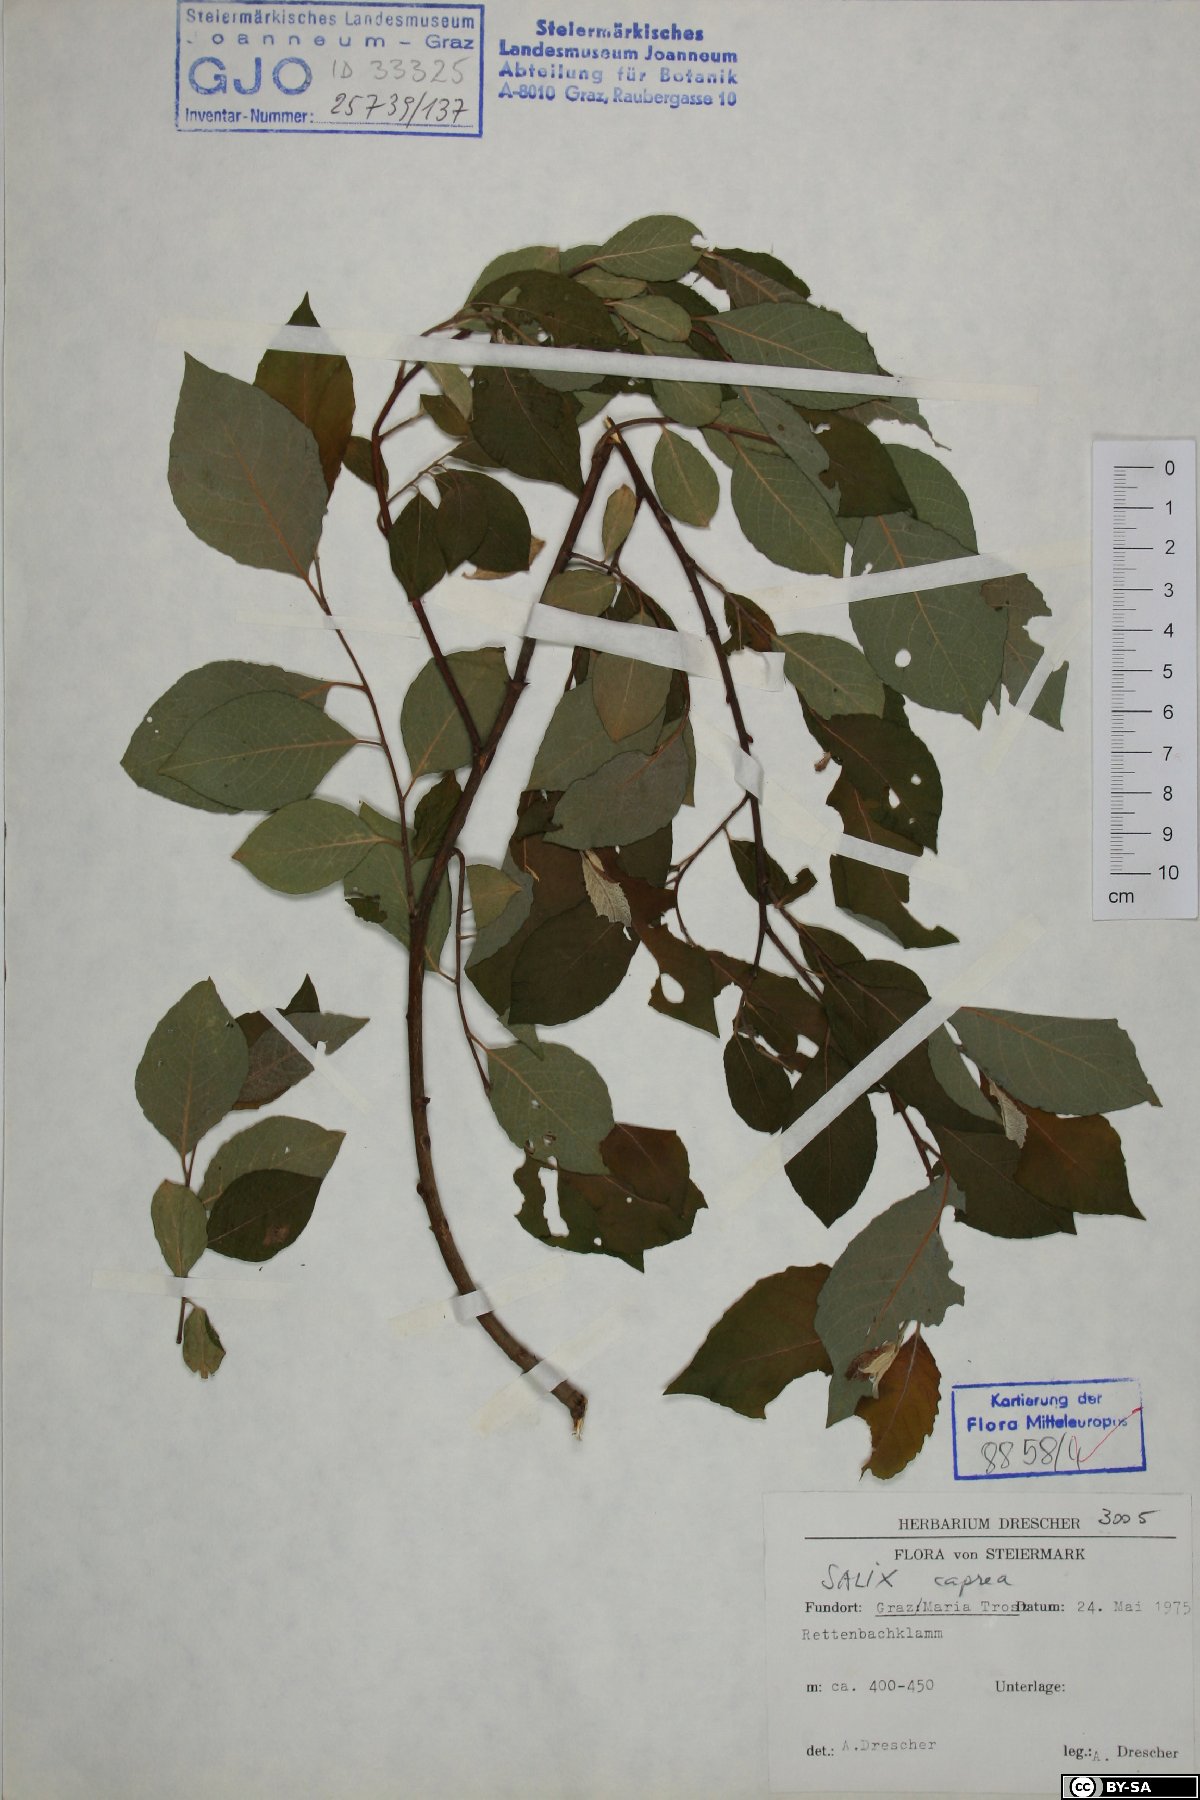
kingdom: Plantae
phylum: Tracheophyta
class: Magnoliopsida
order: Malpighiales
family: Salicaceae
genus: Salix
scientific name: Salix caprea
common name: Goat willow
